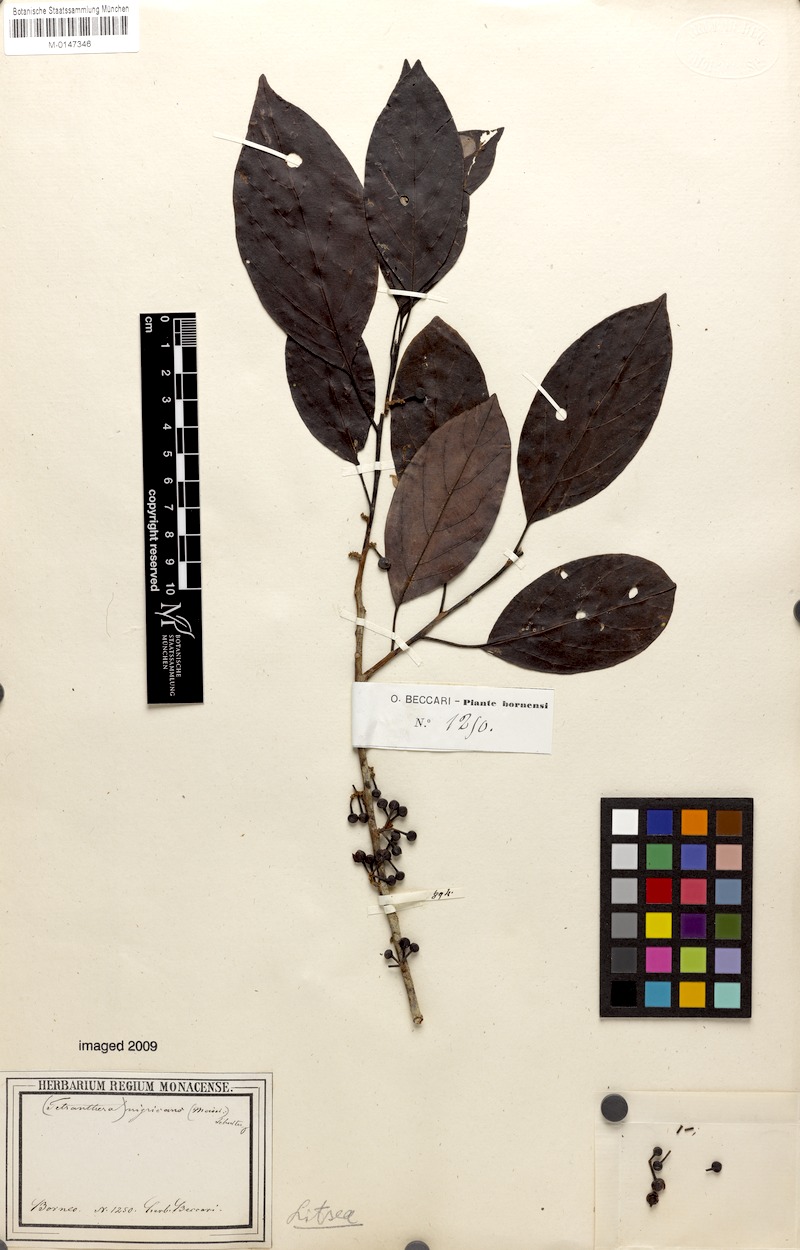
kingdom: Plantae
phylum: Tracheophyta
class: Magnoliopsida
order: Laurales
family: Lauraceae
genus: Litsea
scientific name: Litsea nigricans
